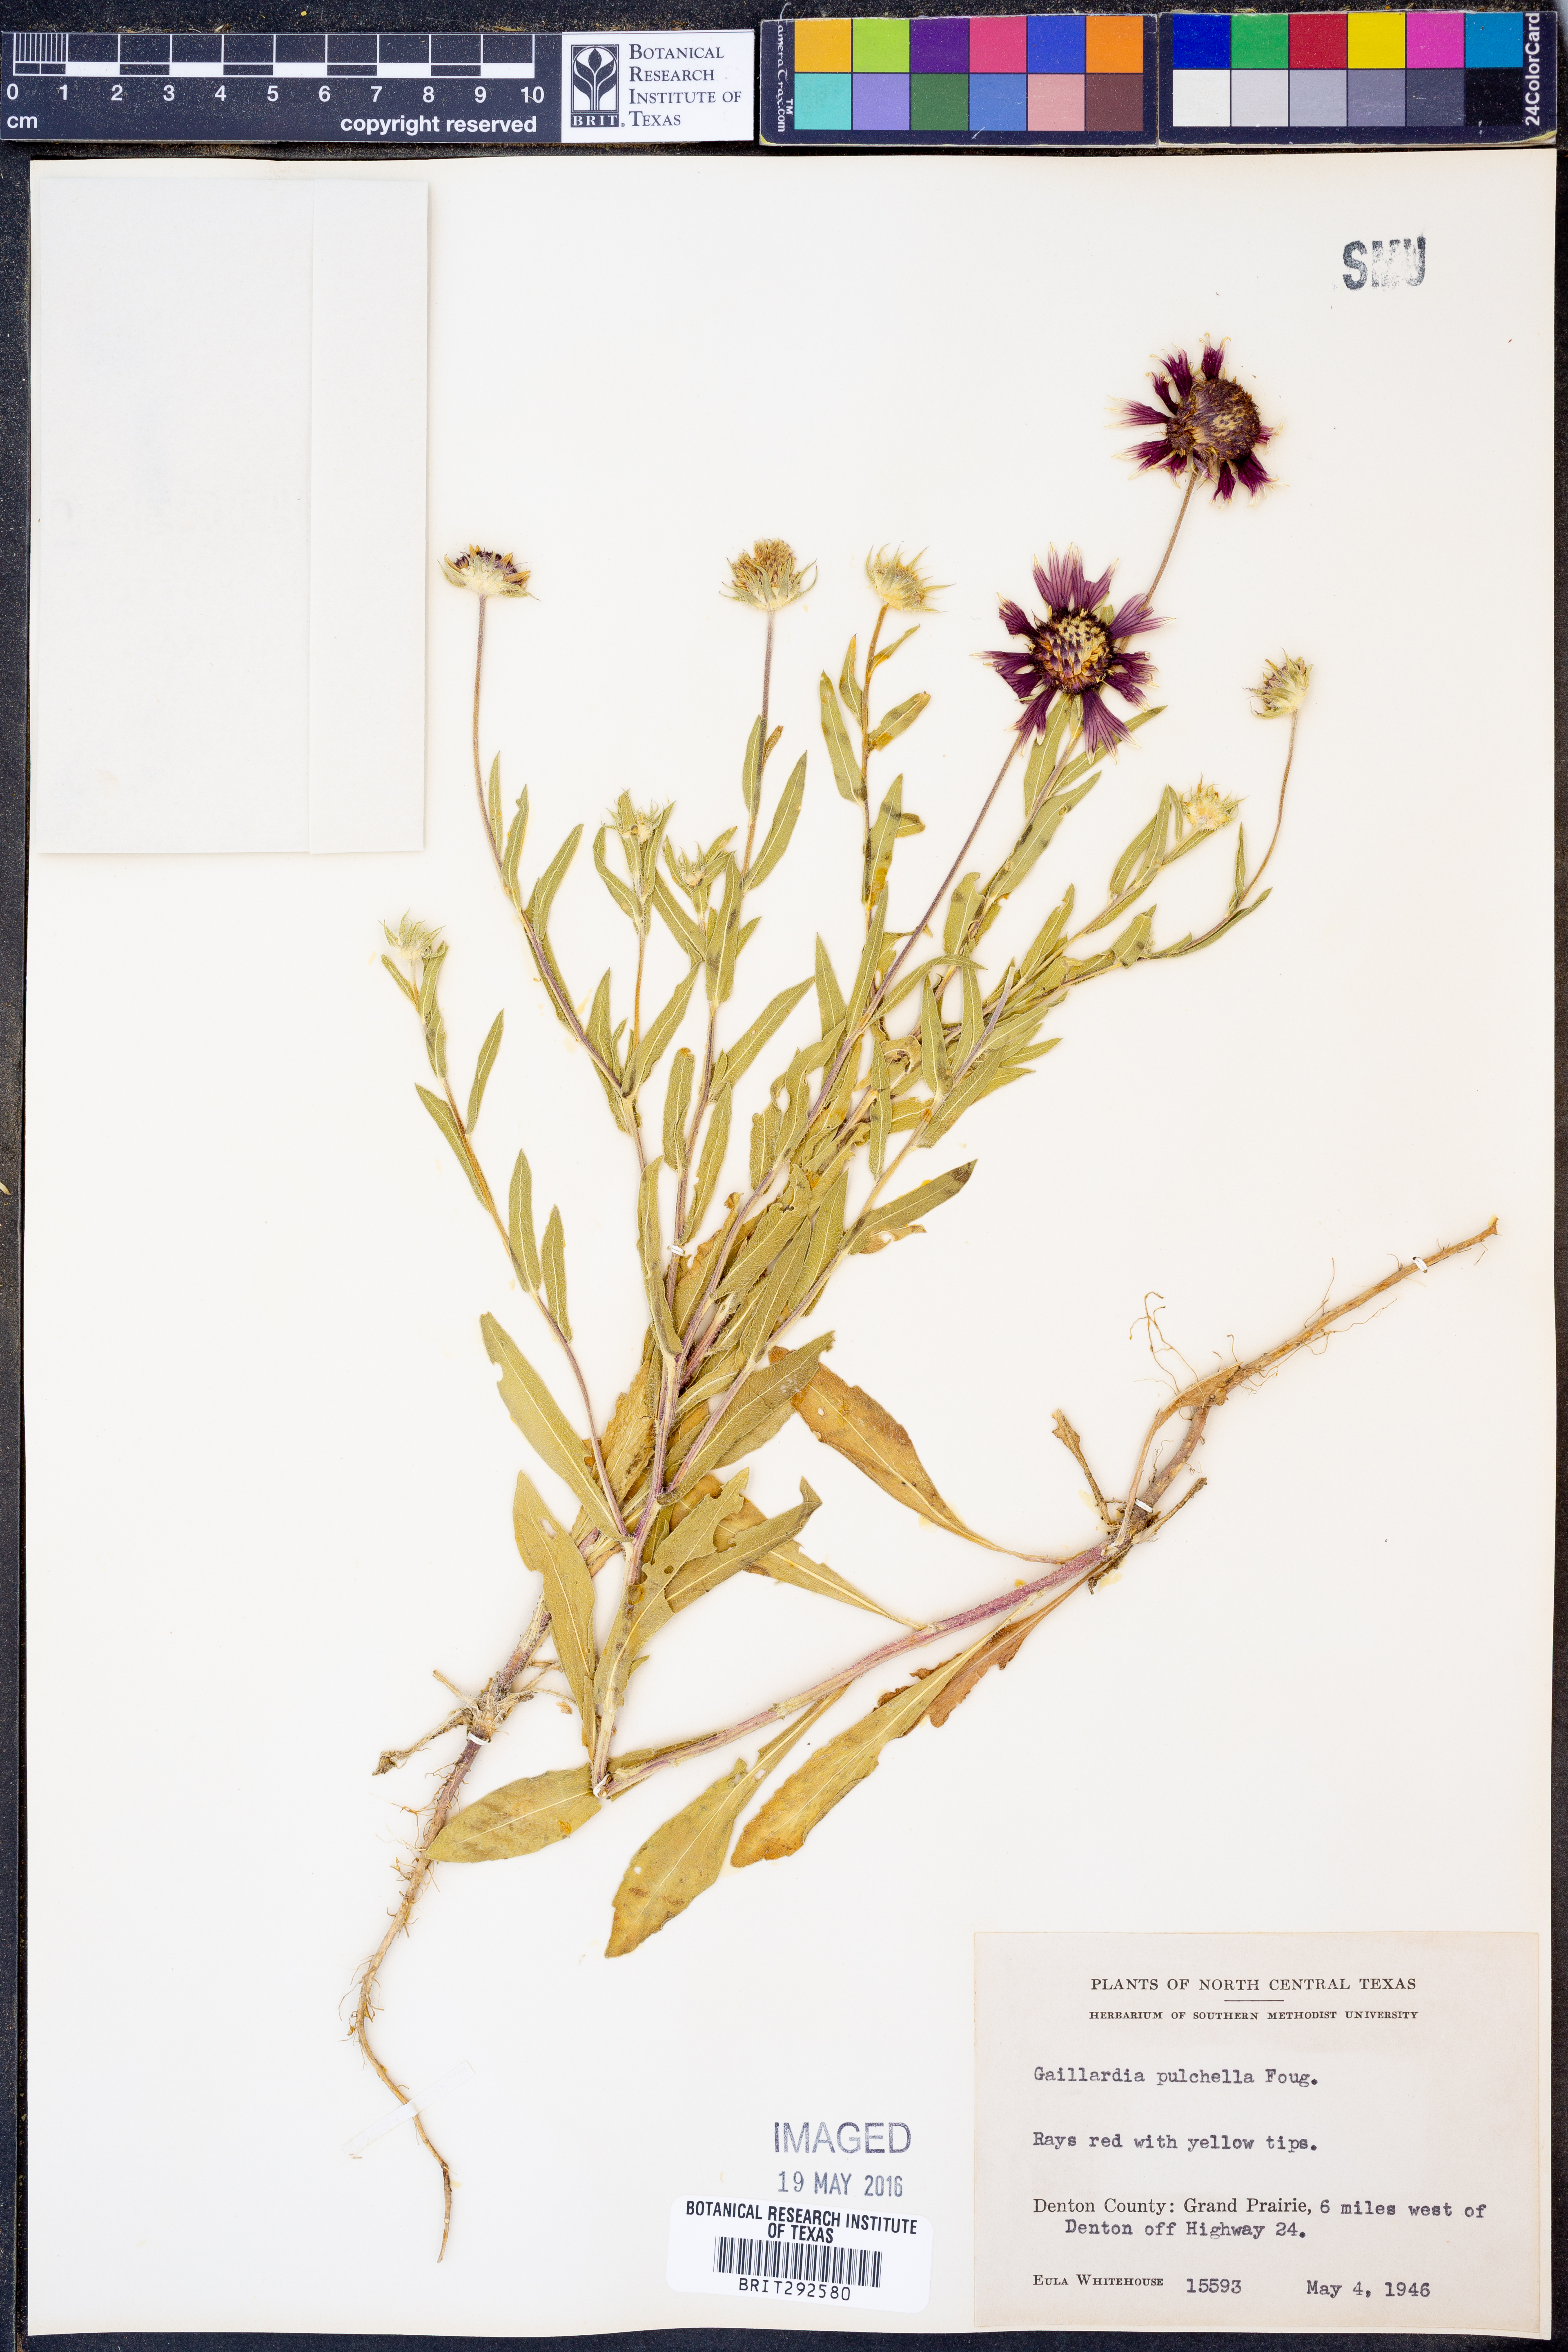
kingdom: Plantae
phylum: Tracheophyta
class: Magnoliopsida
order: Asterales
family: Asteraceae
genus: Gaillardia
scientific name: Gaillardia pulchella
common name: Firewheel
